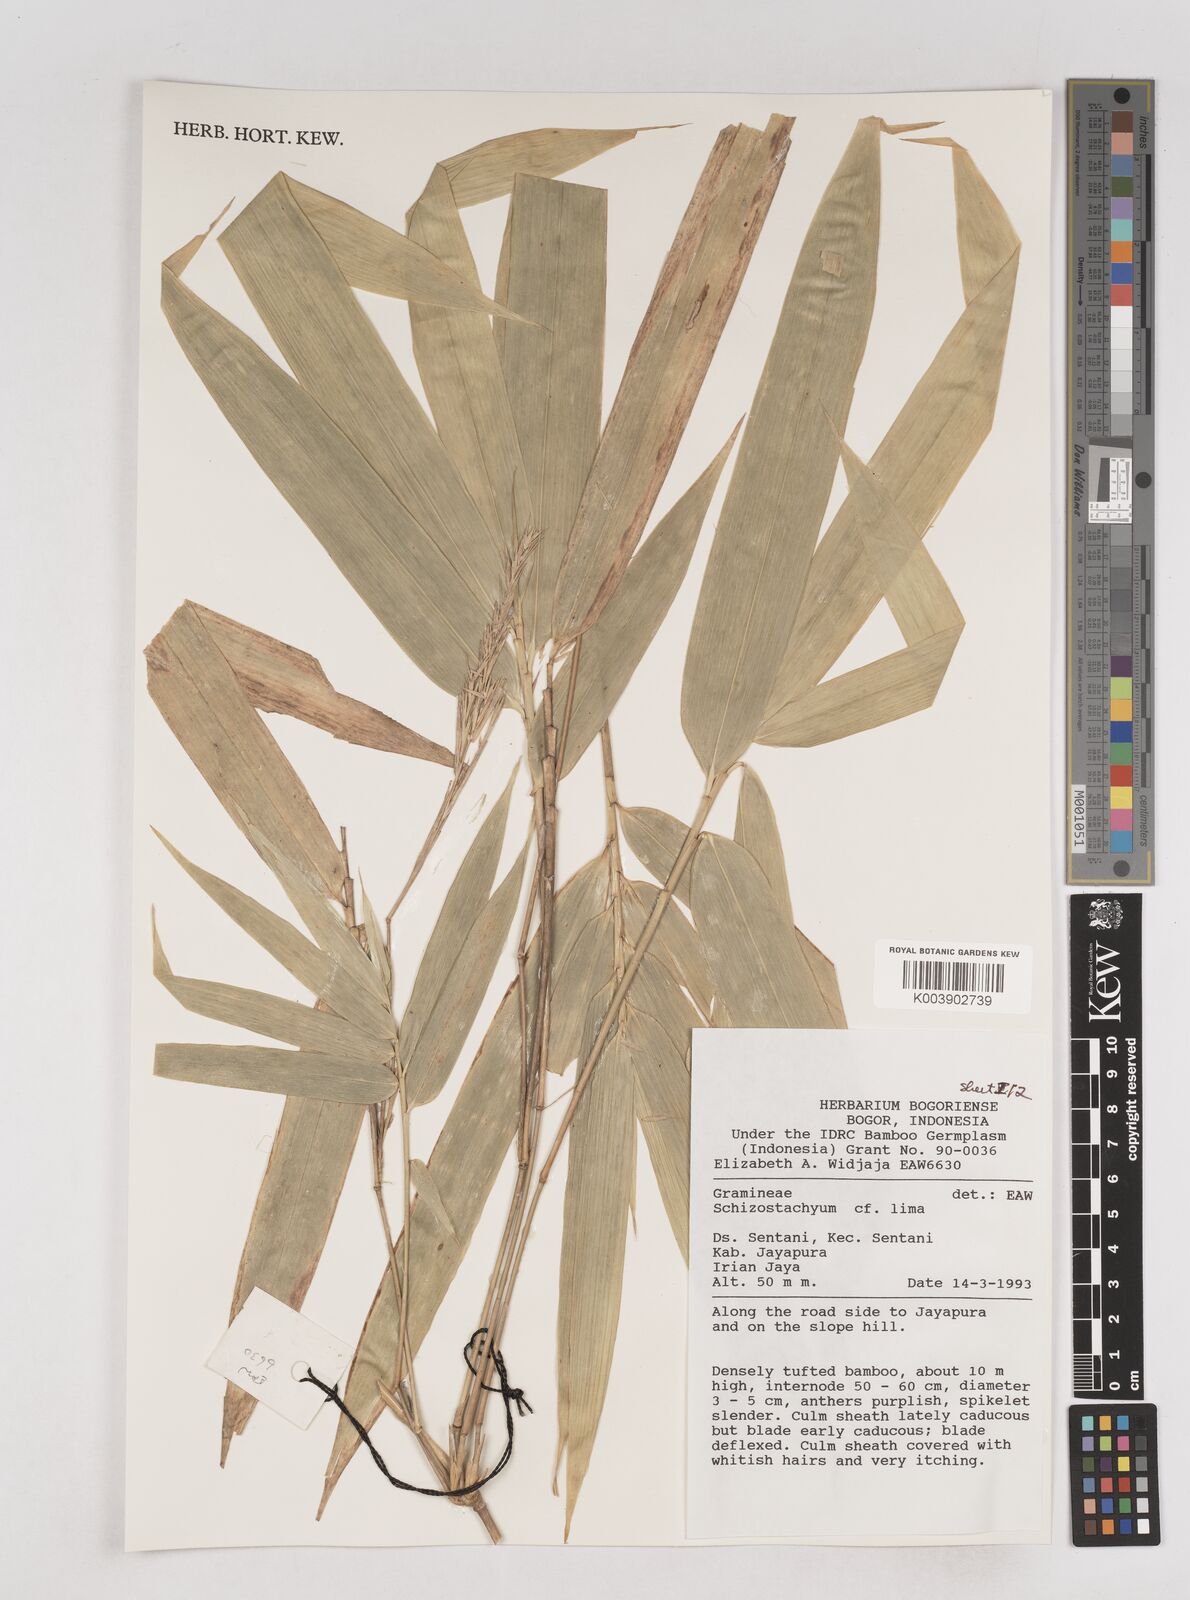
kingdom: Plantae
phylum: Tracheophyta
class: Liliopsida
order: Poales
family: Poaceae
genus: Schizostachyum
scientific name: Schizostachyum
